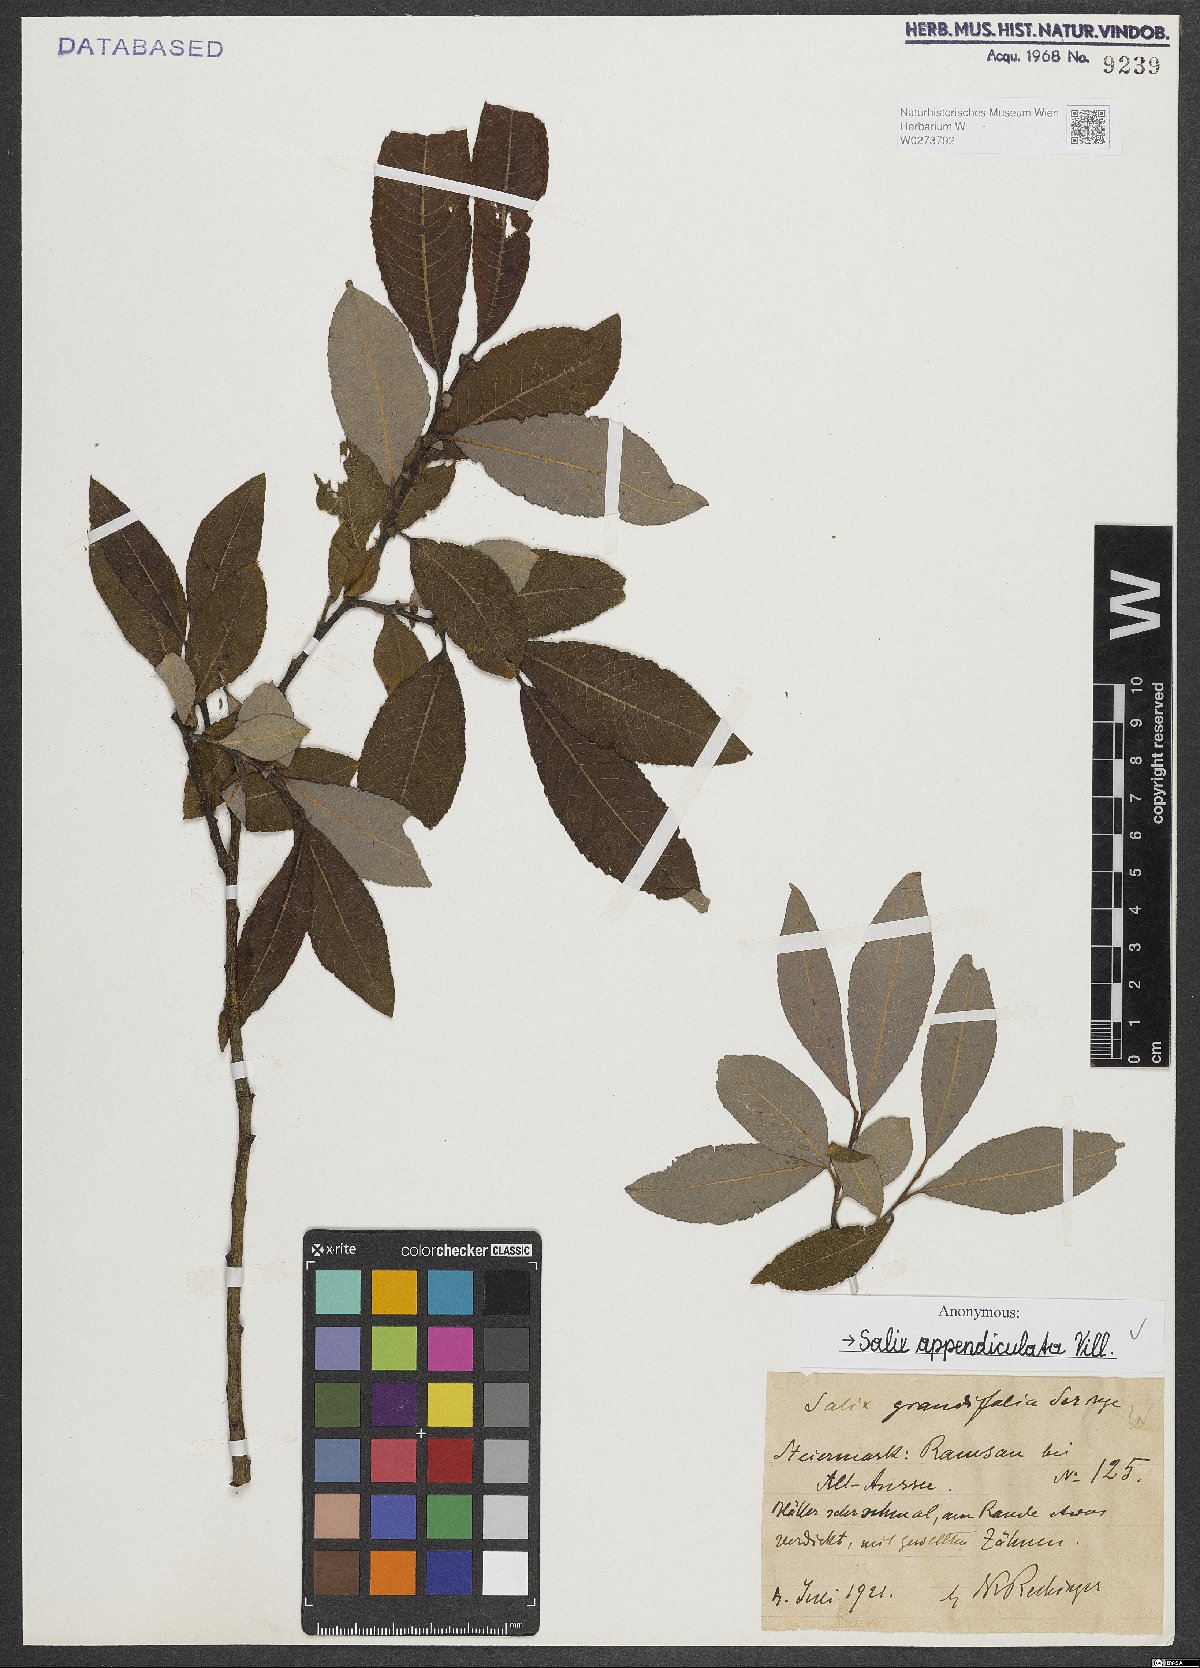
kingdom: Plantae
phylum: Tracheophyta
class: Magnoliopsida
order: Malpighiales
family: Salicaceae
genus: Salix
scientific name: Salix appendiculata
